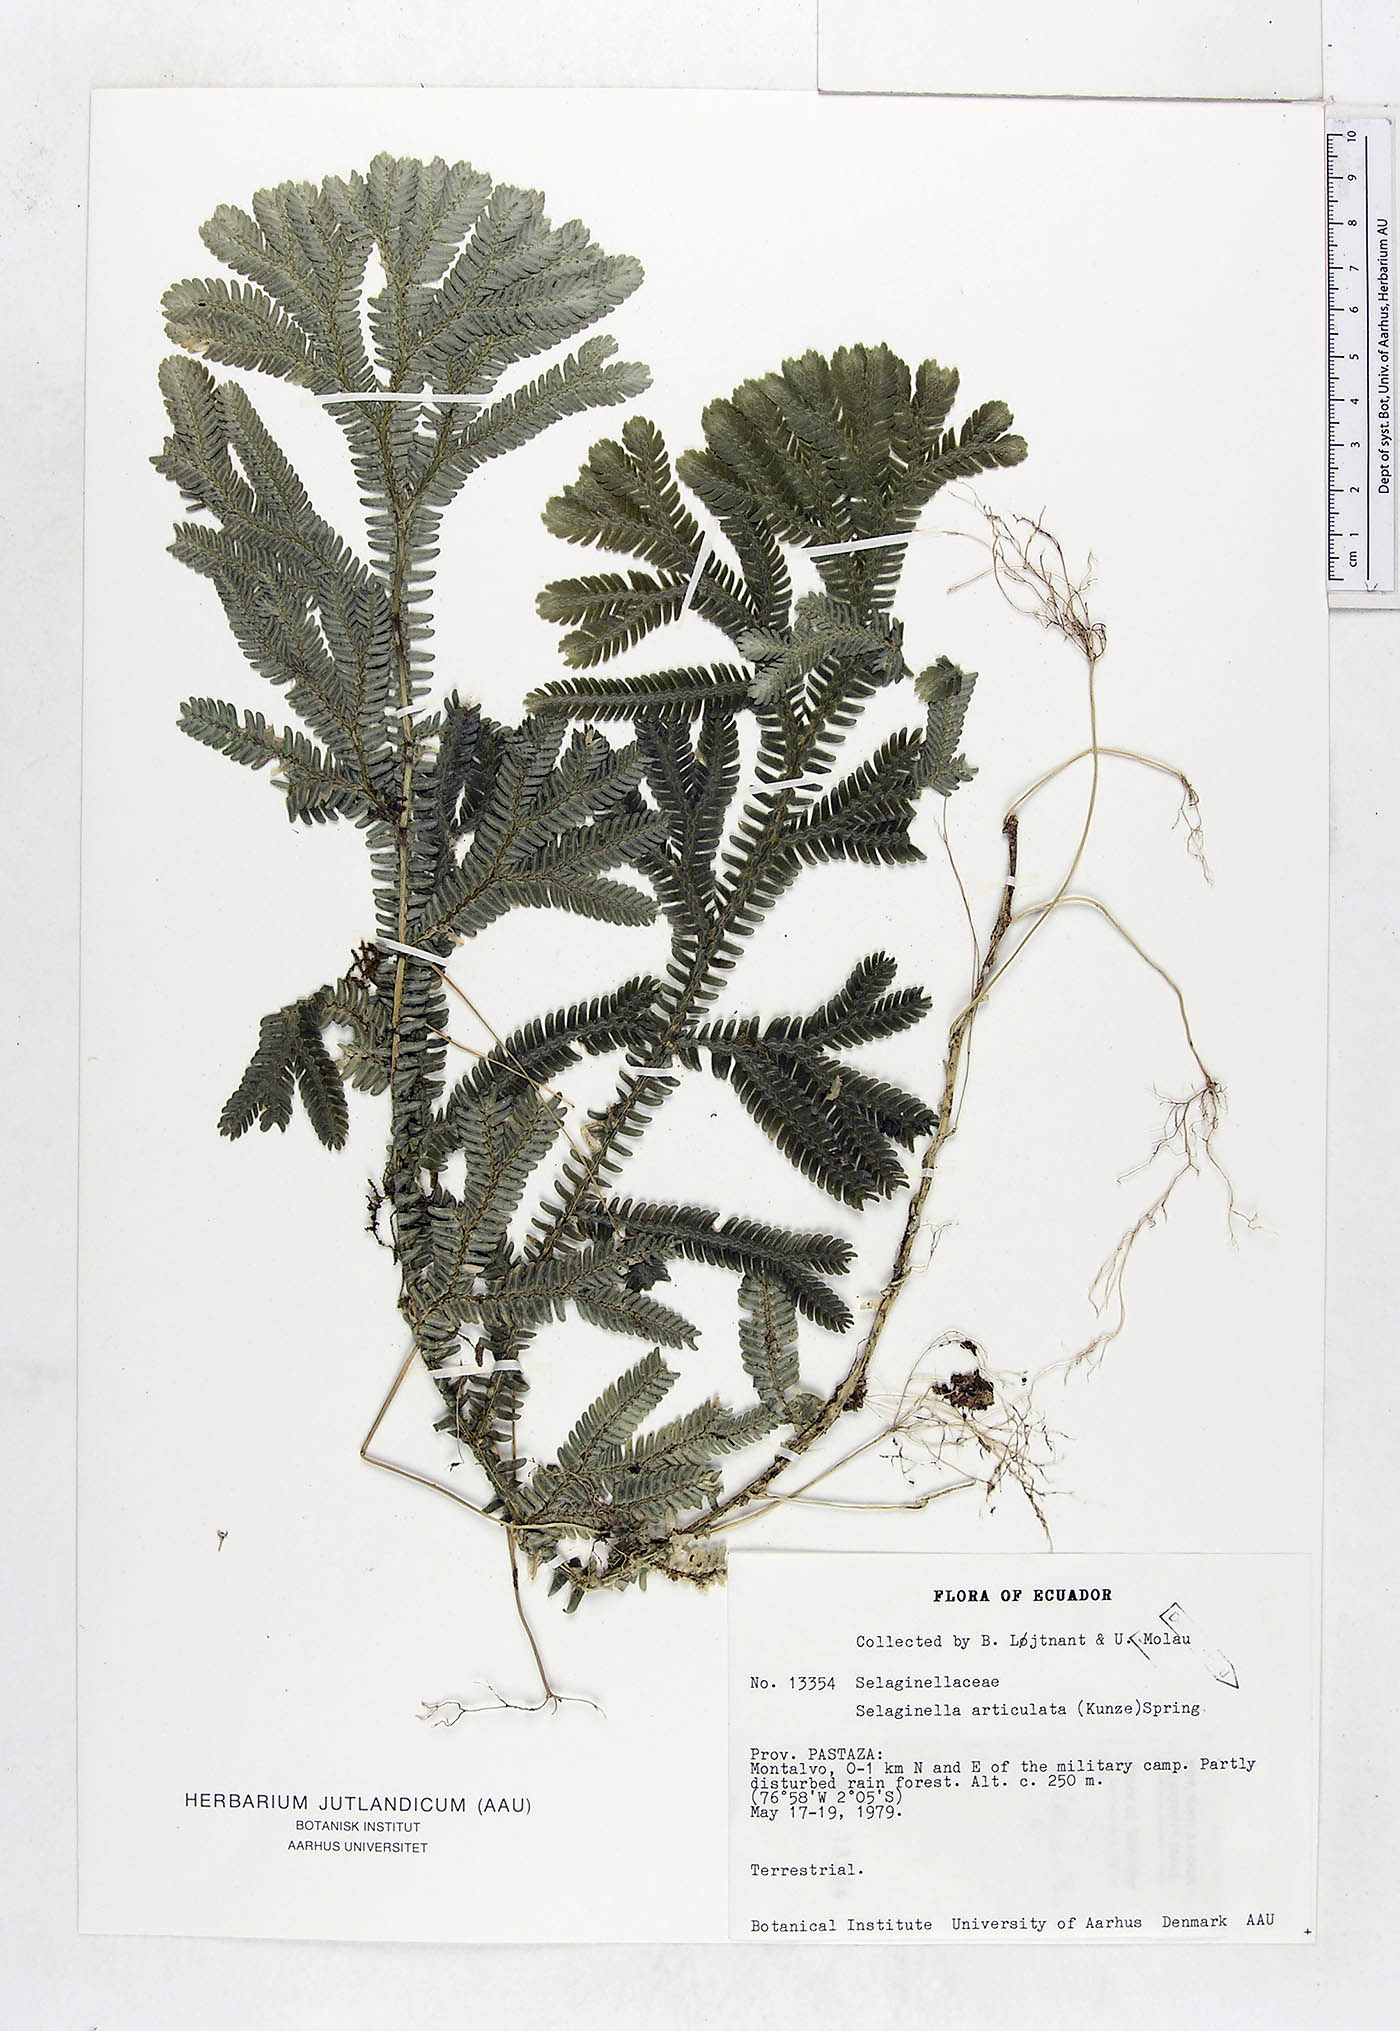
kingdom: Plantae
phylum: Tracheophyta
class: Lycopodiopsida
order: Selaginellales
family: Selaginellaceae
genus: Selaginella
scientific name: Selaginella articulata
